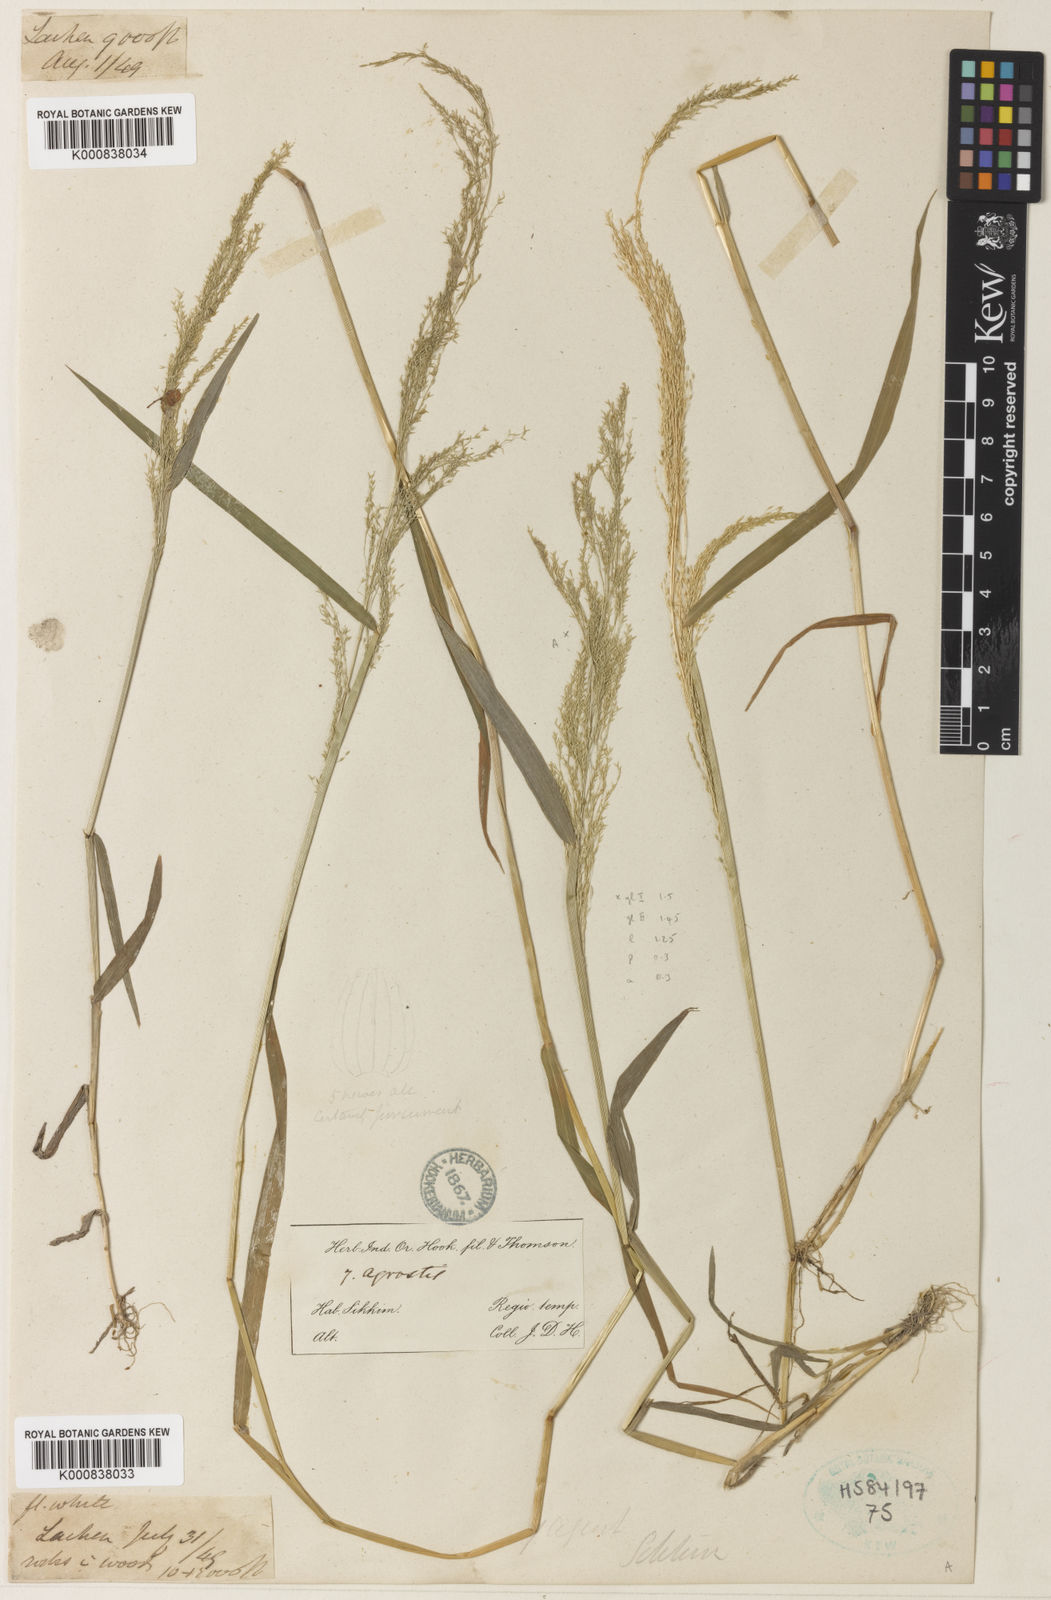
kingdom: Plantae
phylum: Tracheophyta
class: Liliopsida
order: Poales
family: Poaceae
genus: Agrostis
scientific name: Agrostis micrantha
